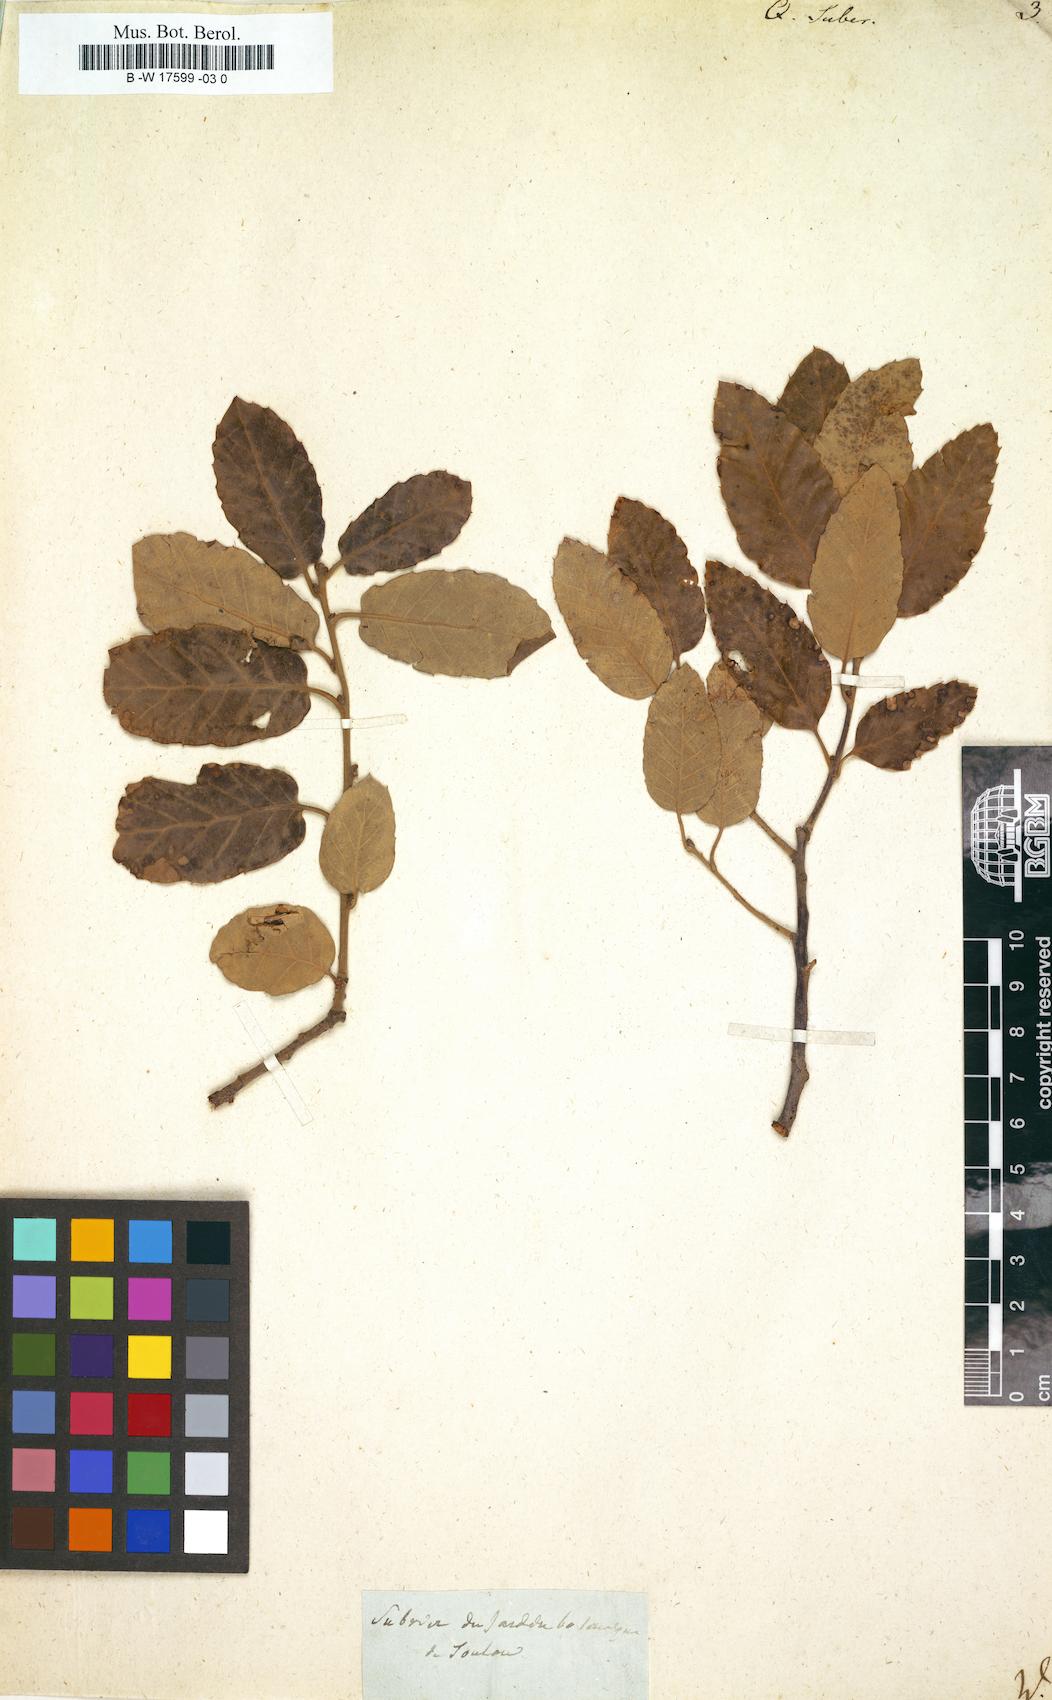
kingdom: Plantae
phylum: Tracheophyta
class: Magnoliopsida
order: Fagales
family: Fagaceae
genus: Quercus
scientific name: Quercus suber
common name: Cork oak
